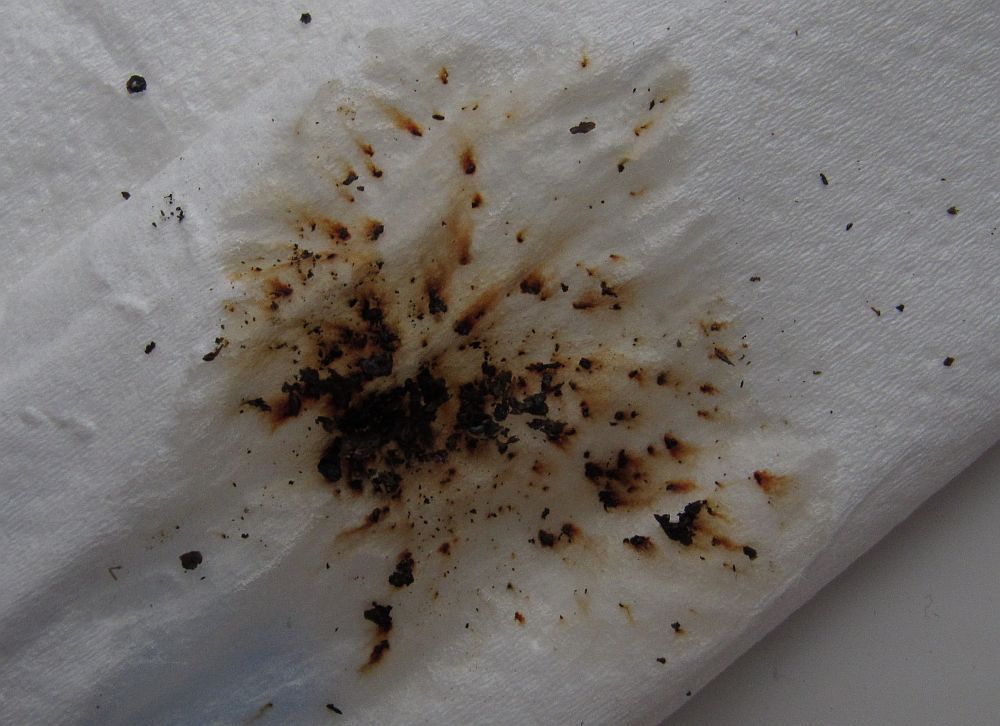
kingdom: Fungi
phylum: Ascomycota
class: Sordariomycetes
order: Xylariales
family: Hypoxylaceae
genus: Hypoxylon
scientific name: Hypoxylon rubiginosum
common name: rustfarvet kulbær
